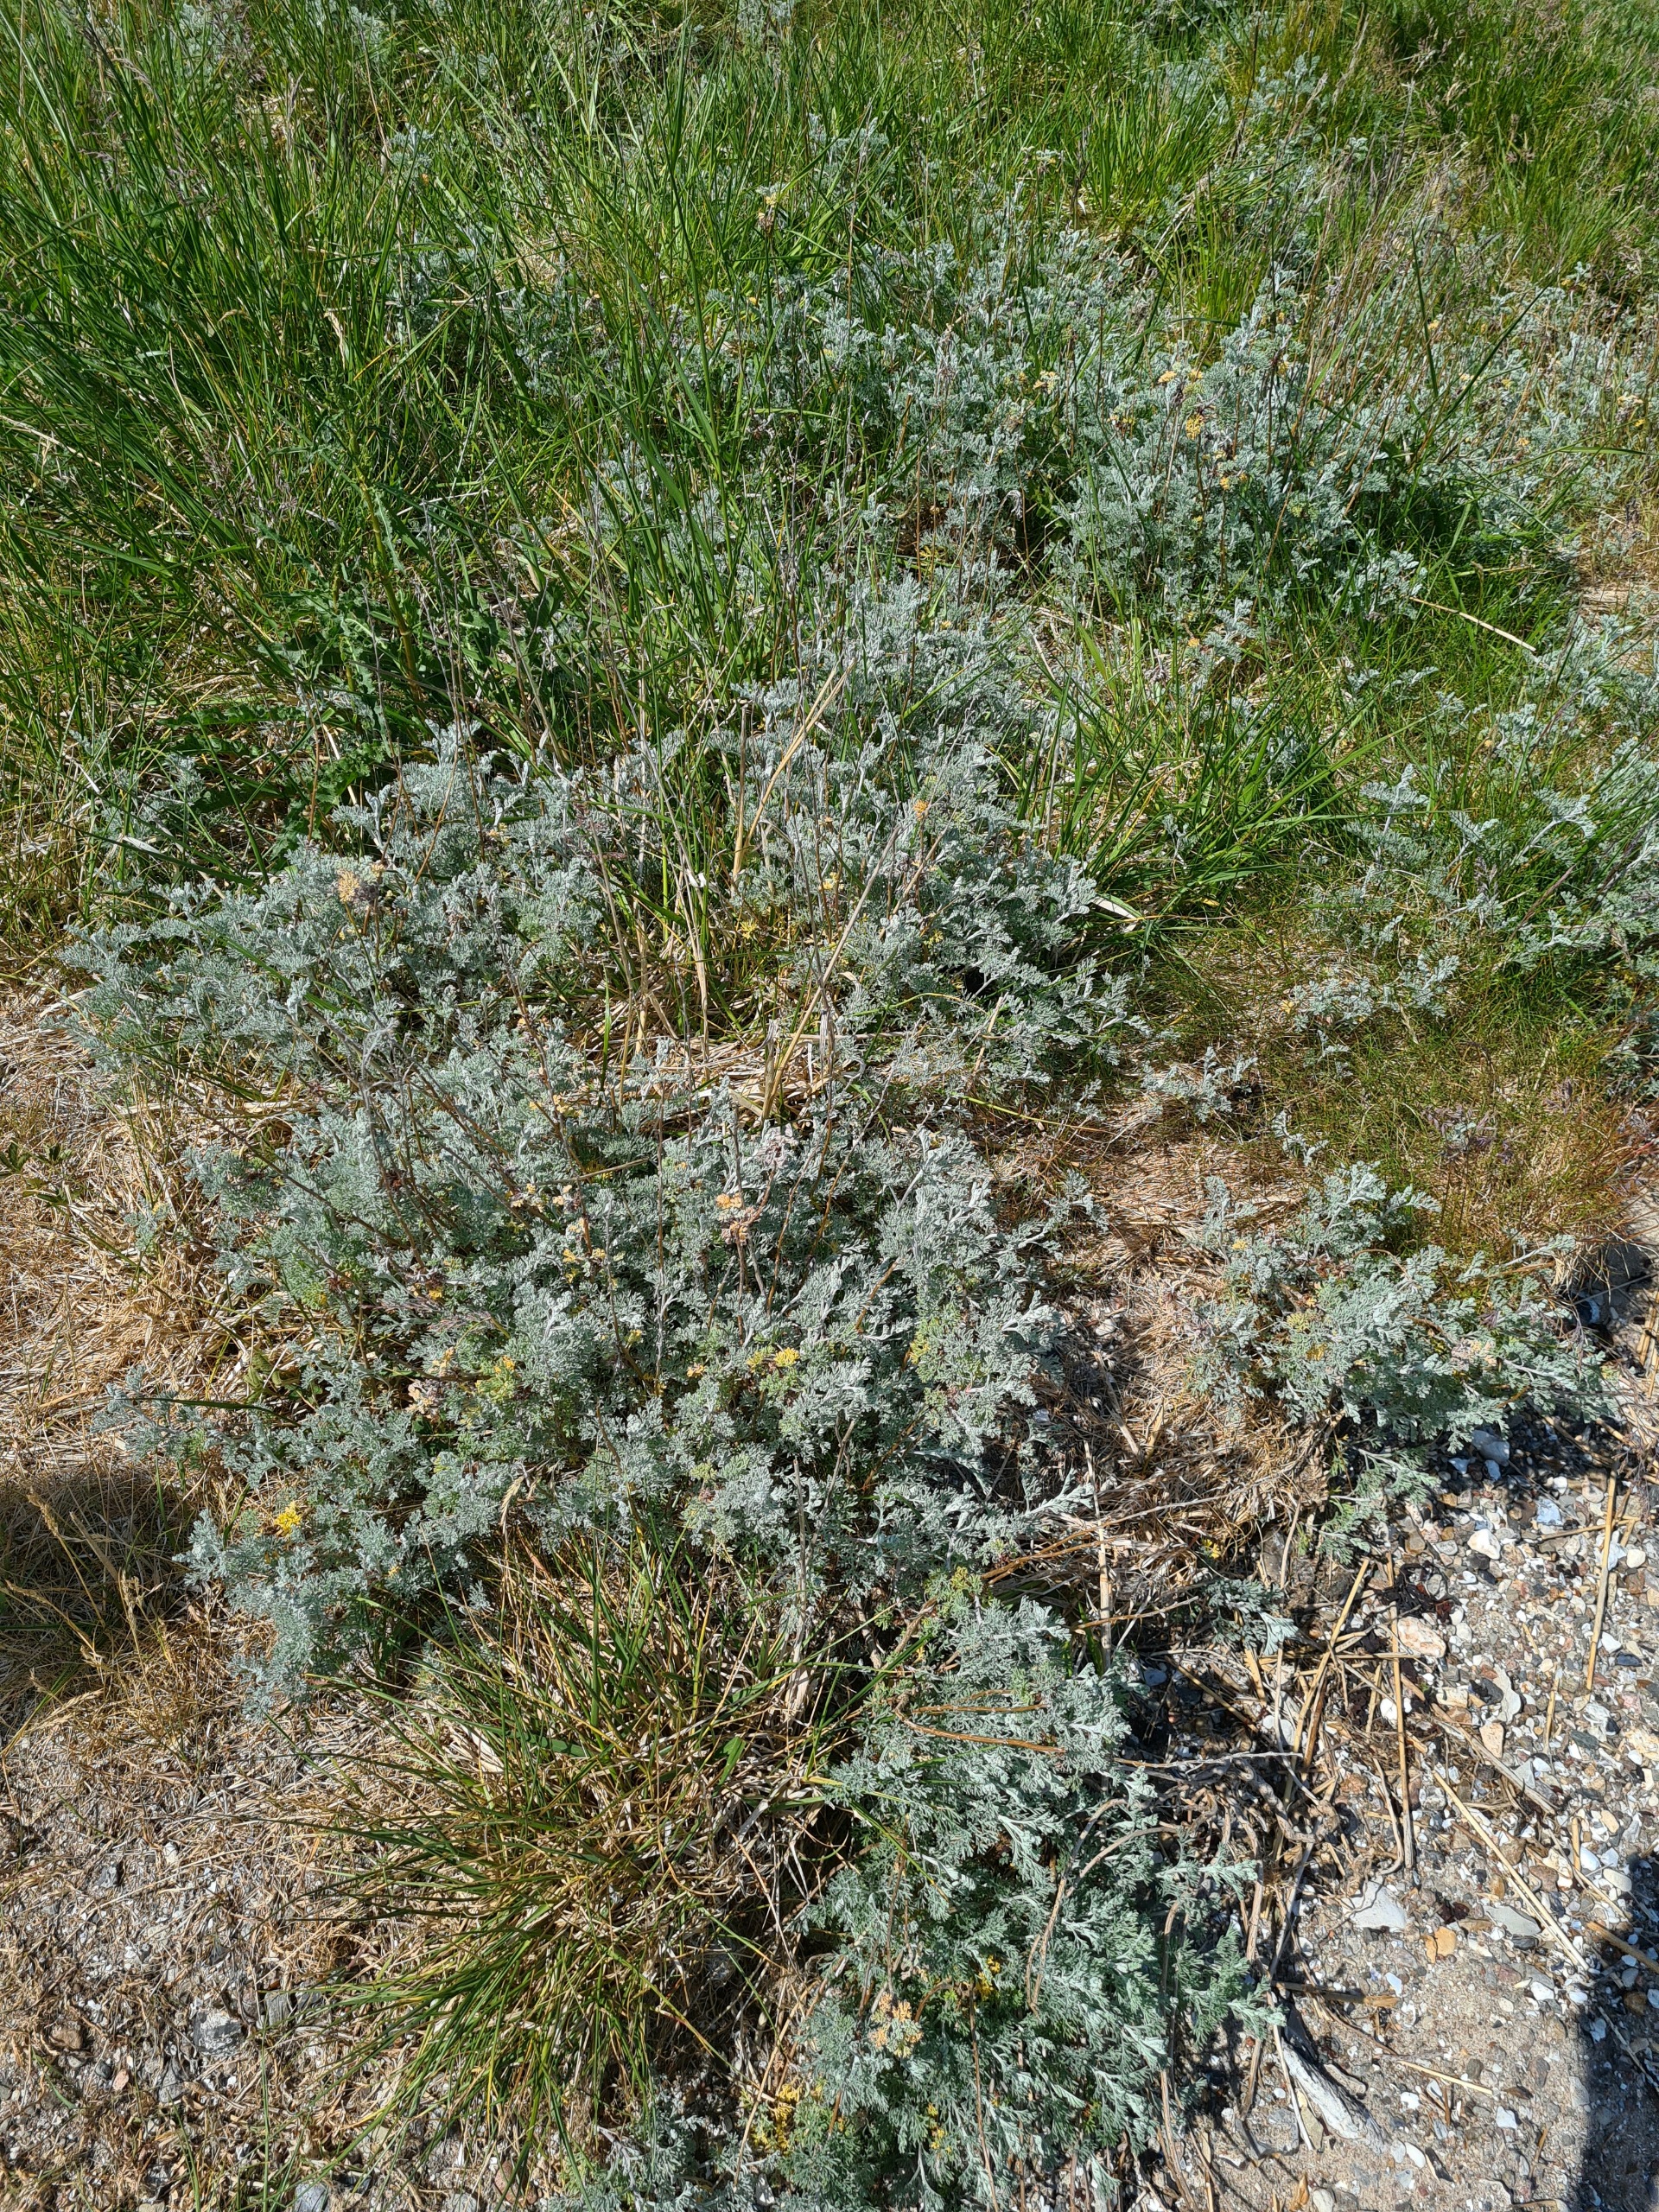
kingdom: Plantae
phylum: Tracheophyta
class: Magnoliopsida
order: Asterales
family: Asteraceae
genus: Artemisia
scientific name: Artemisia maritima
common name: Strandmalurt
